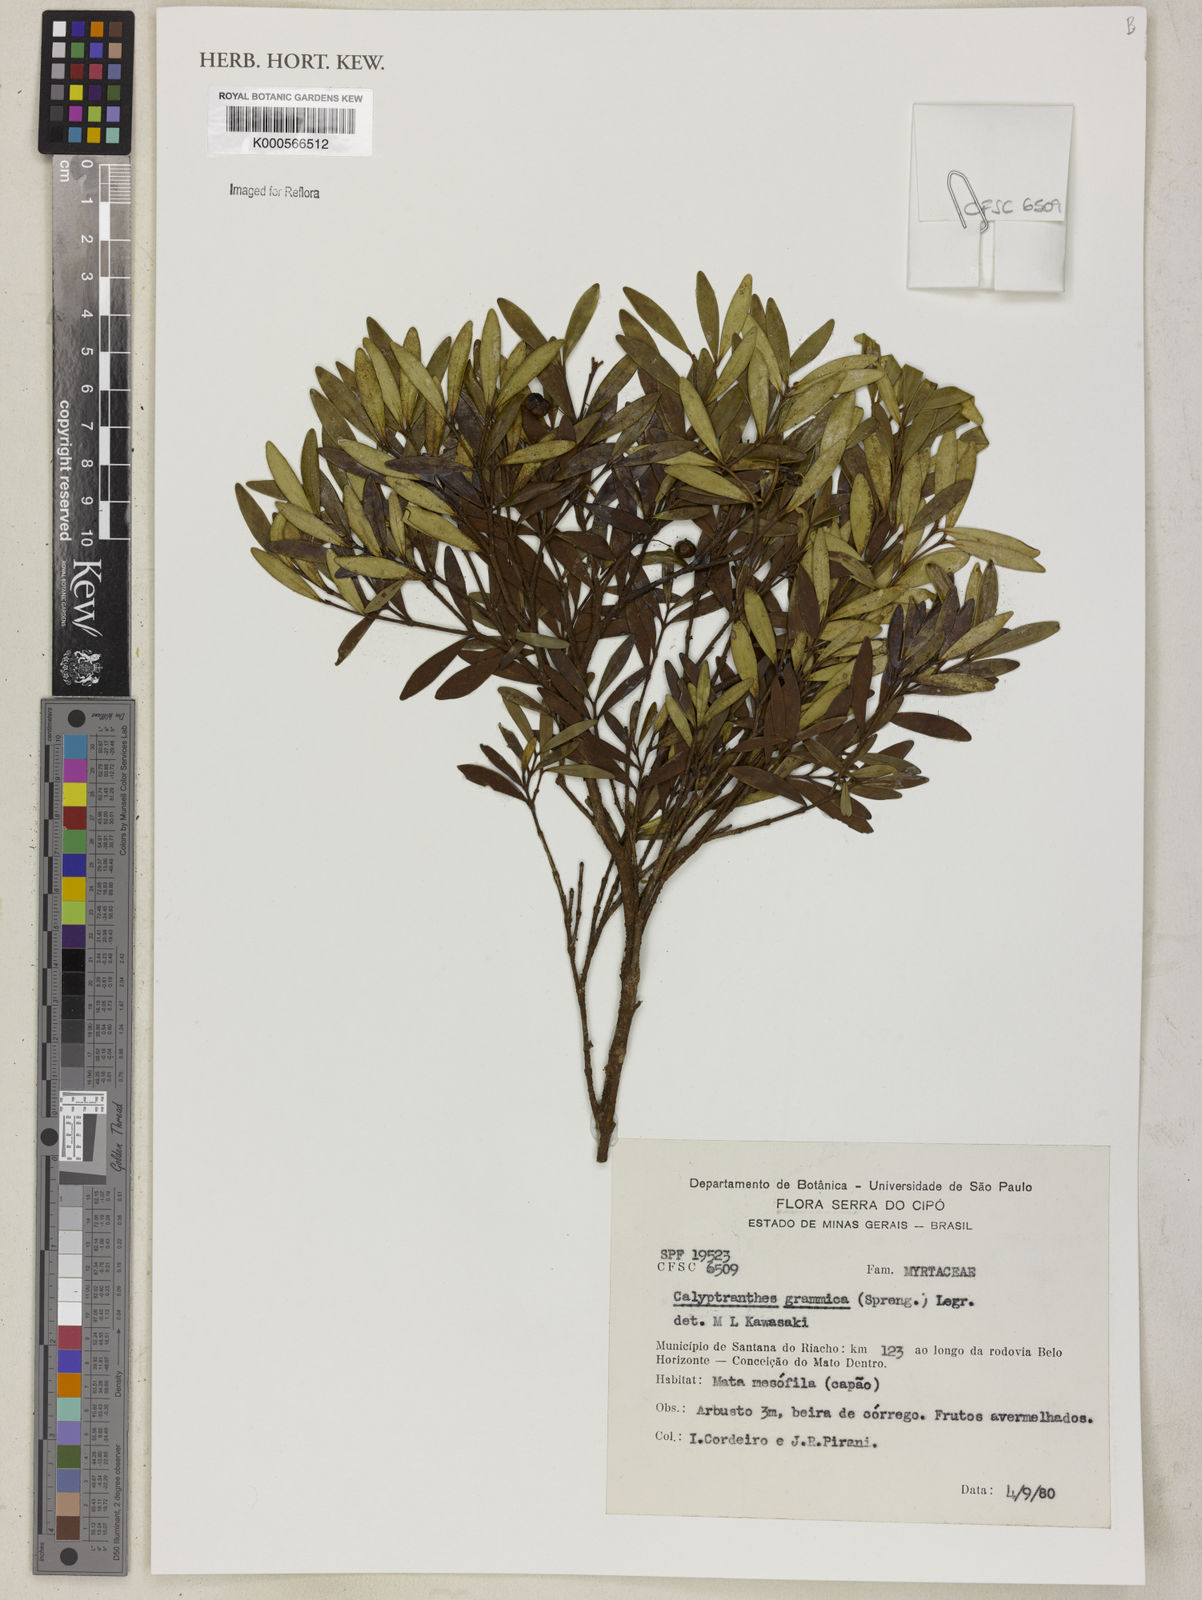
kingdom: Plantae
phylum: Tracheophyta
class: Magnoliopsida
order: Myrtales
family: Myrtaceae
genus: Myrcia
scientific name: Myrcia grammica
